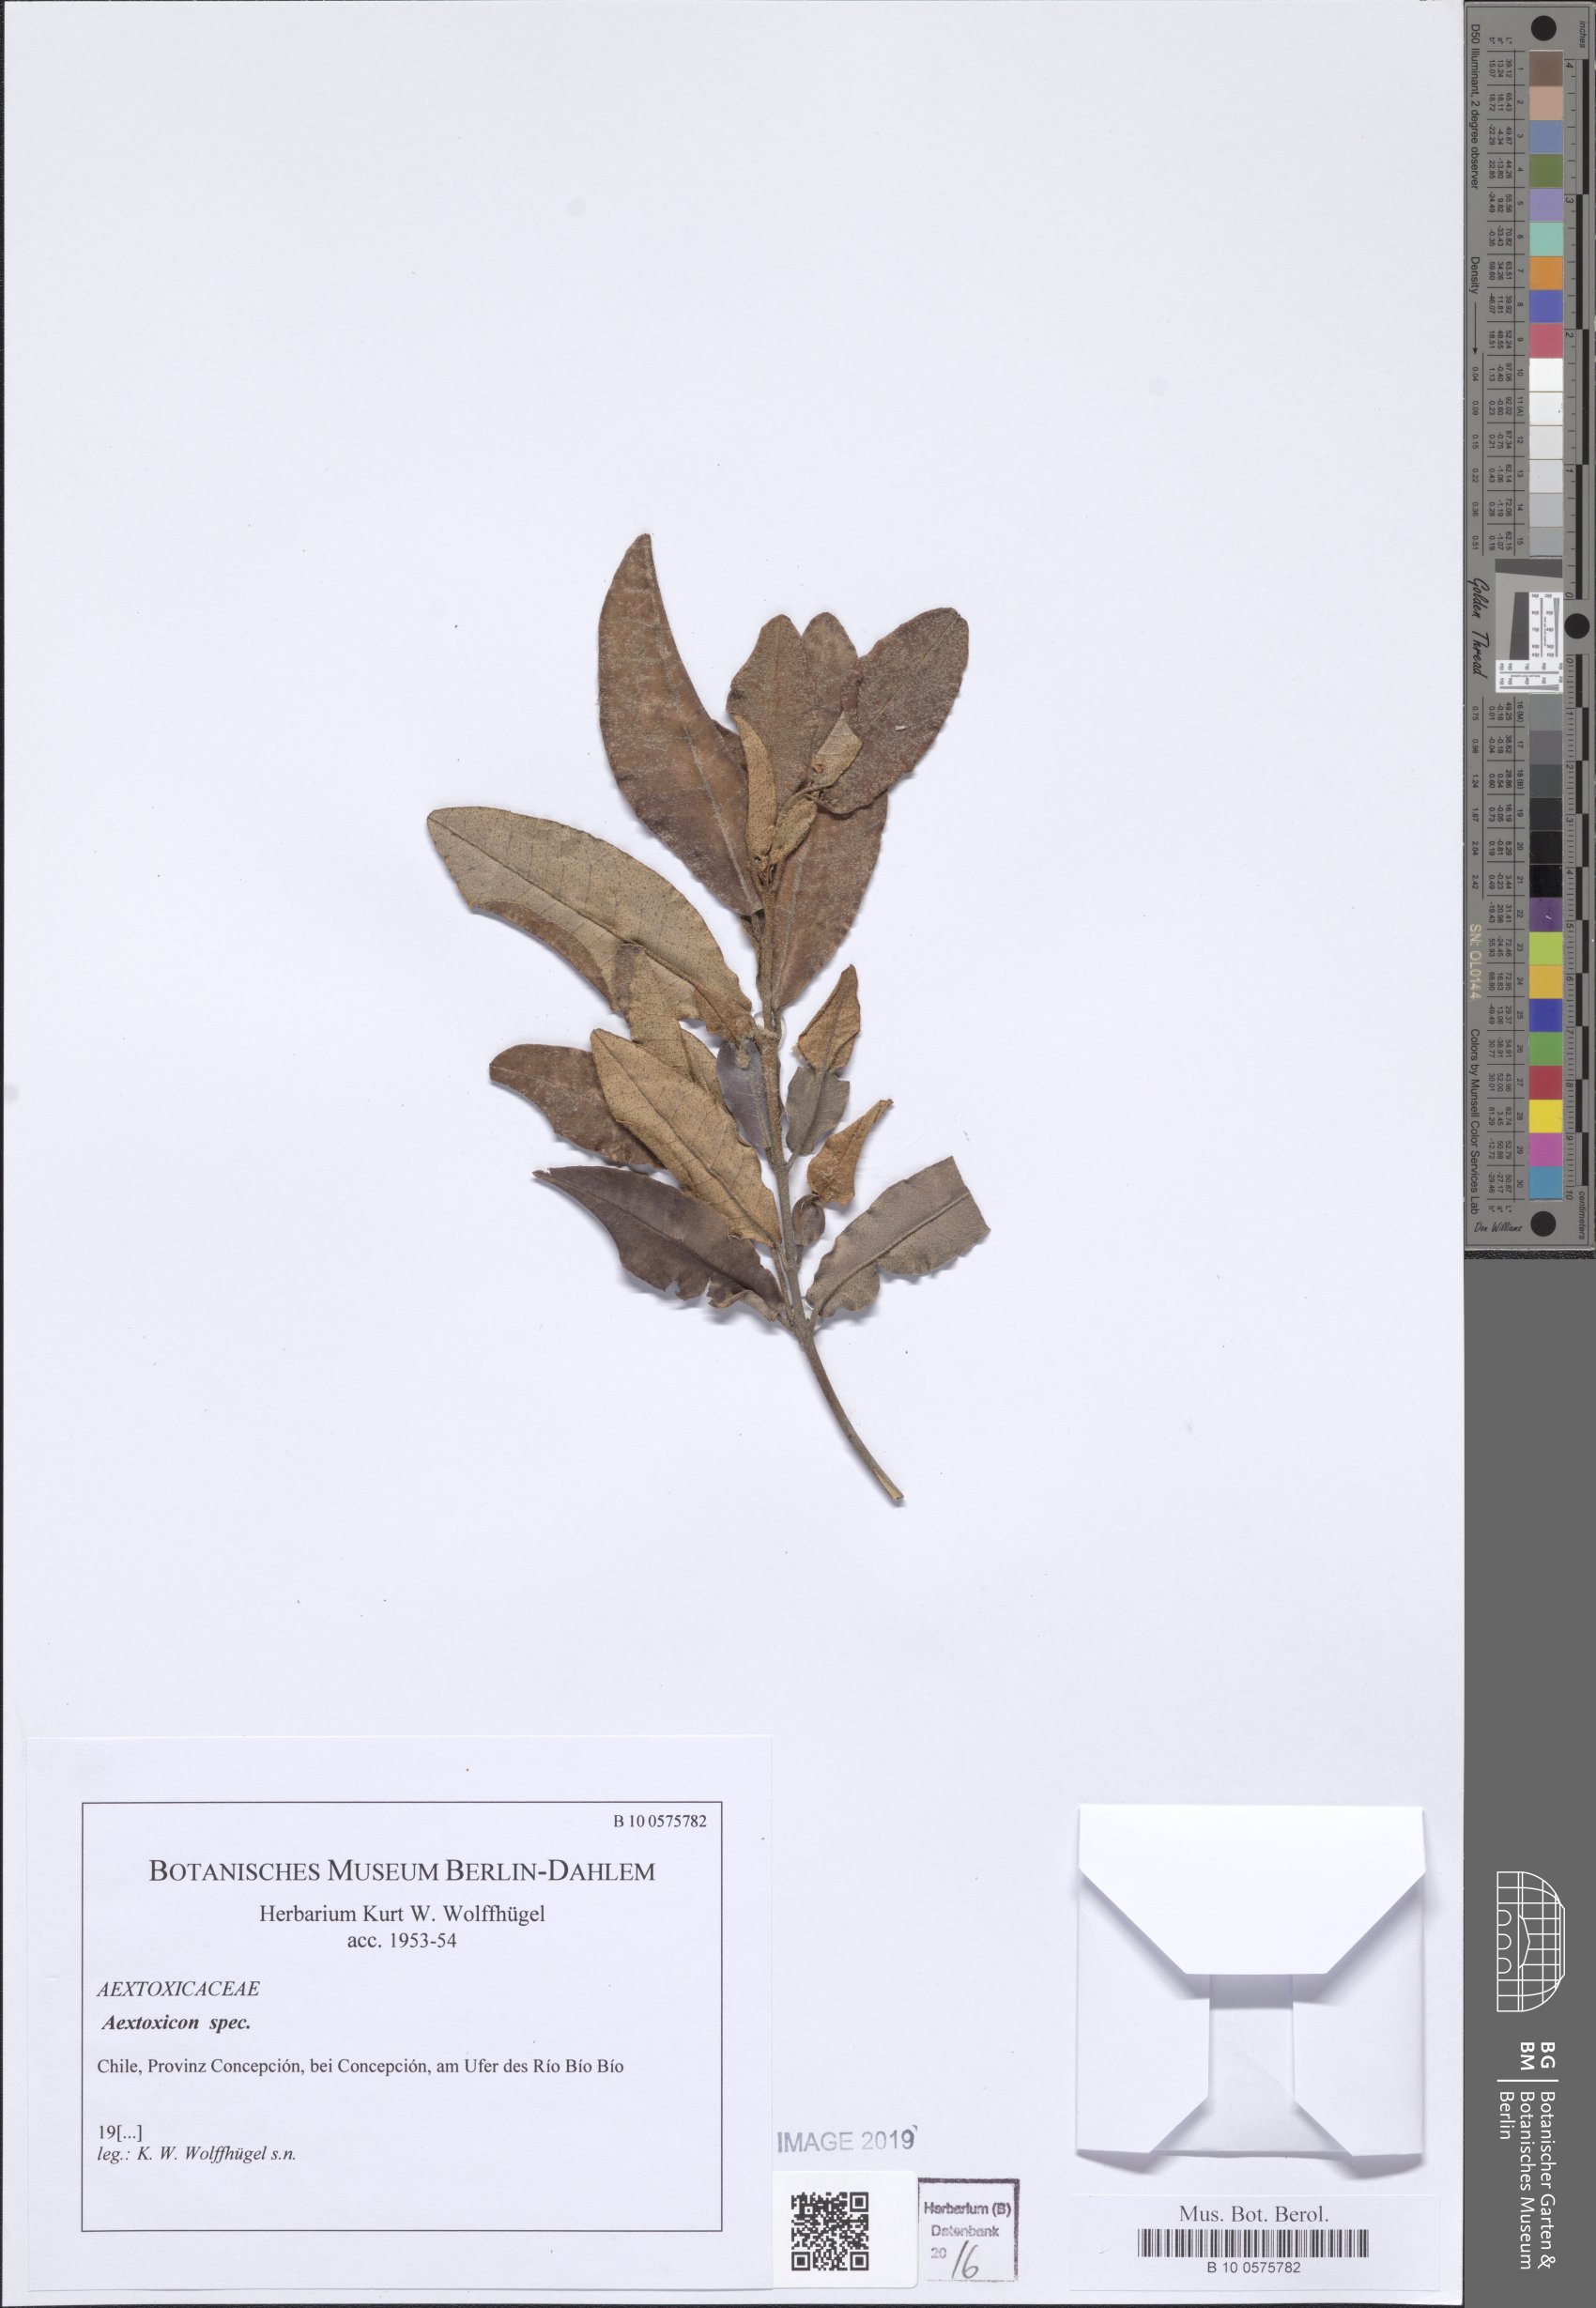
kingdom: Plantae
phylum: Tracheophyta
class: Magnoliopsida
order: Berberidopsidales
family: Aextoxicaceae
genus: Aextoxicon
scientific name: Aextoxicon
